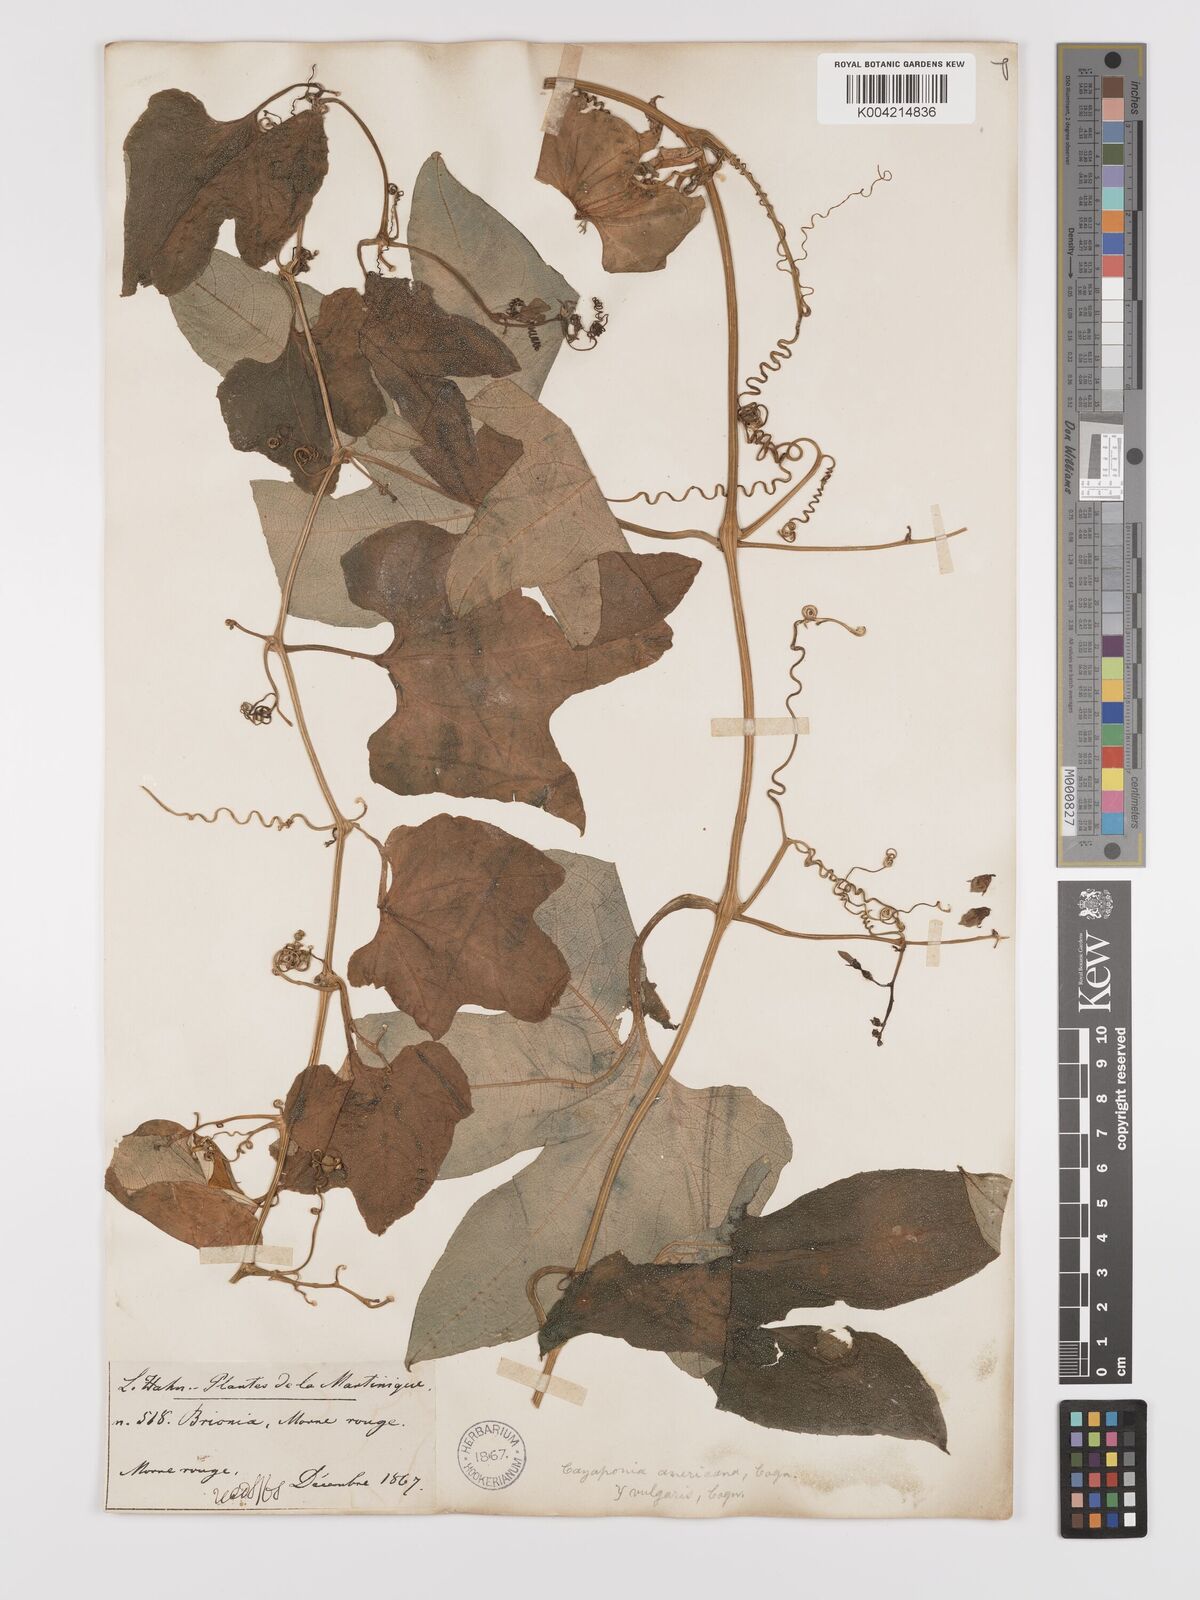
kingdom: Plantae
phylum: Tracheophyta
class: Magnoliopsida
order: Cucurbitales
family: Cucurbitaceae
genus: Cayaponia
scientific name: Cayaponia americana
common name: American melonleaf
